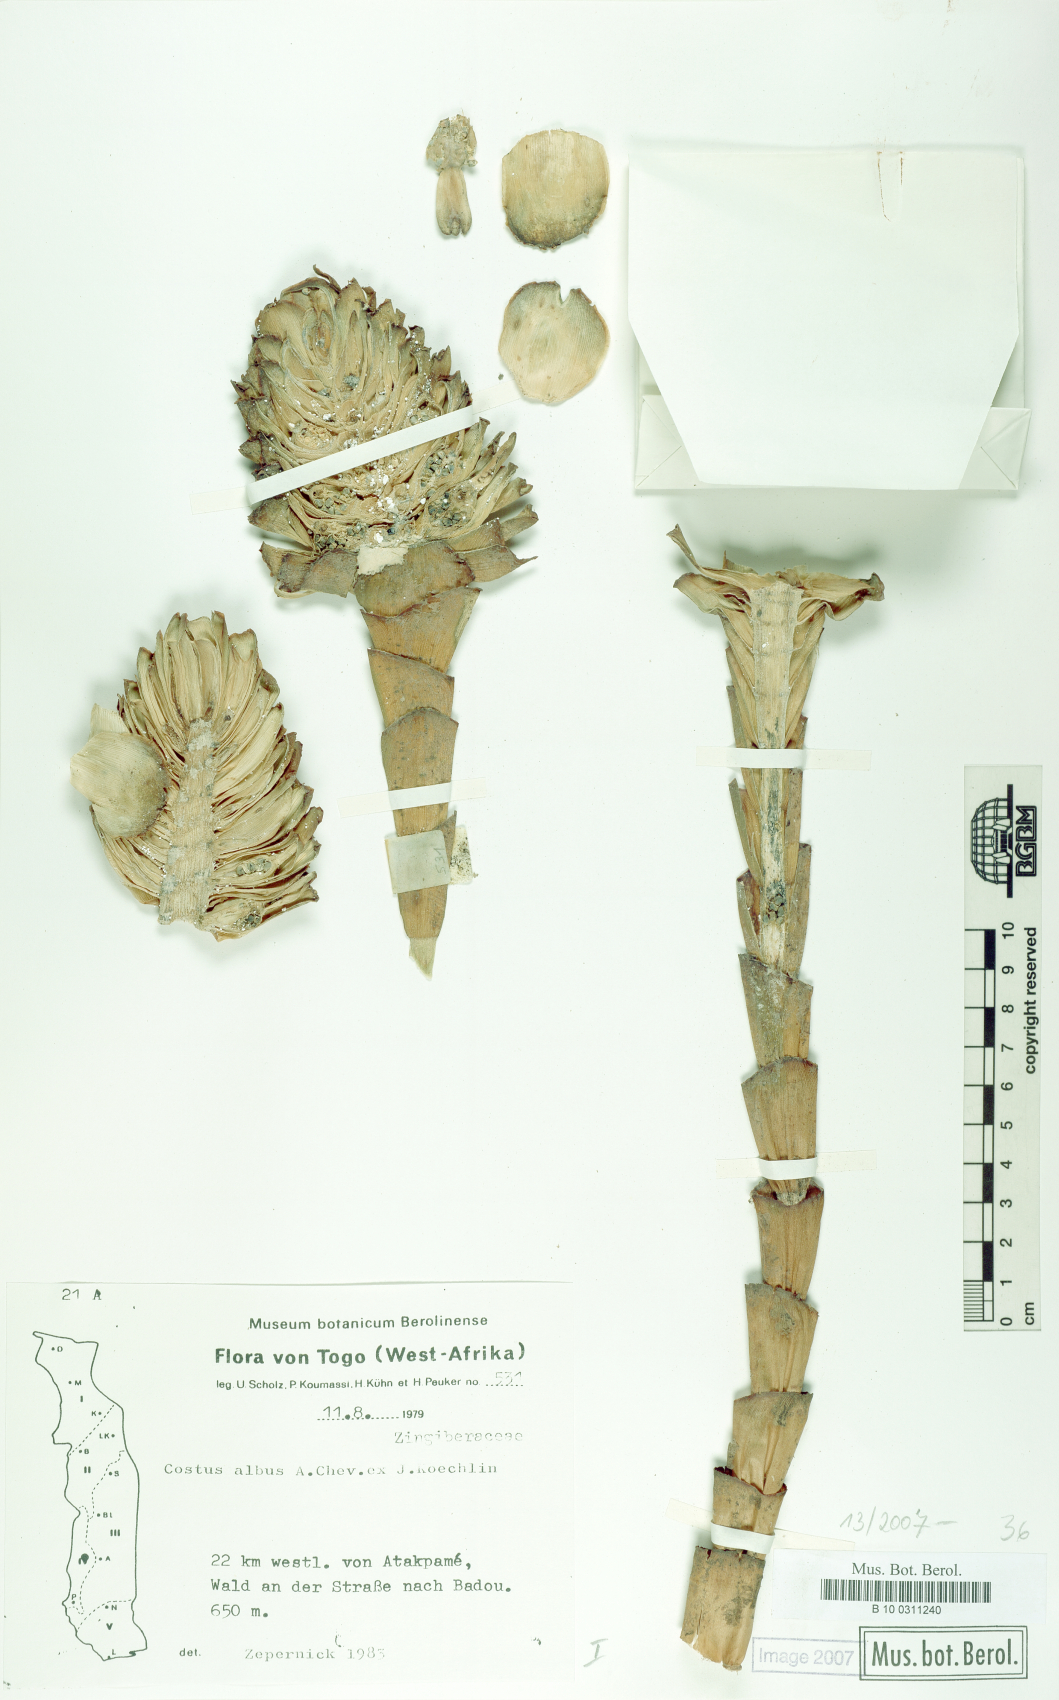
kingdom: Plantae
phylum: Tracheophyta
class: Liliopsida
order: Zingiberales
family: Costaceae
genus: Costus
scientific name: Costus dubius
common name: Costus
